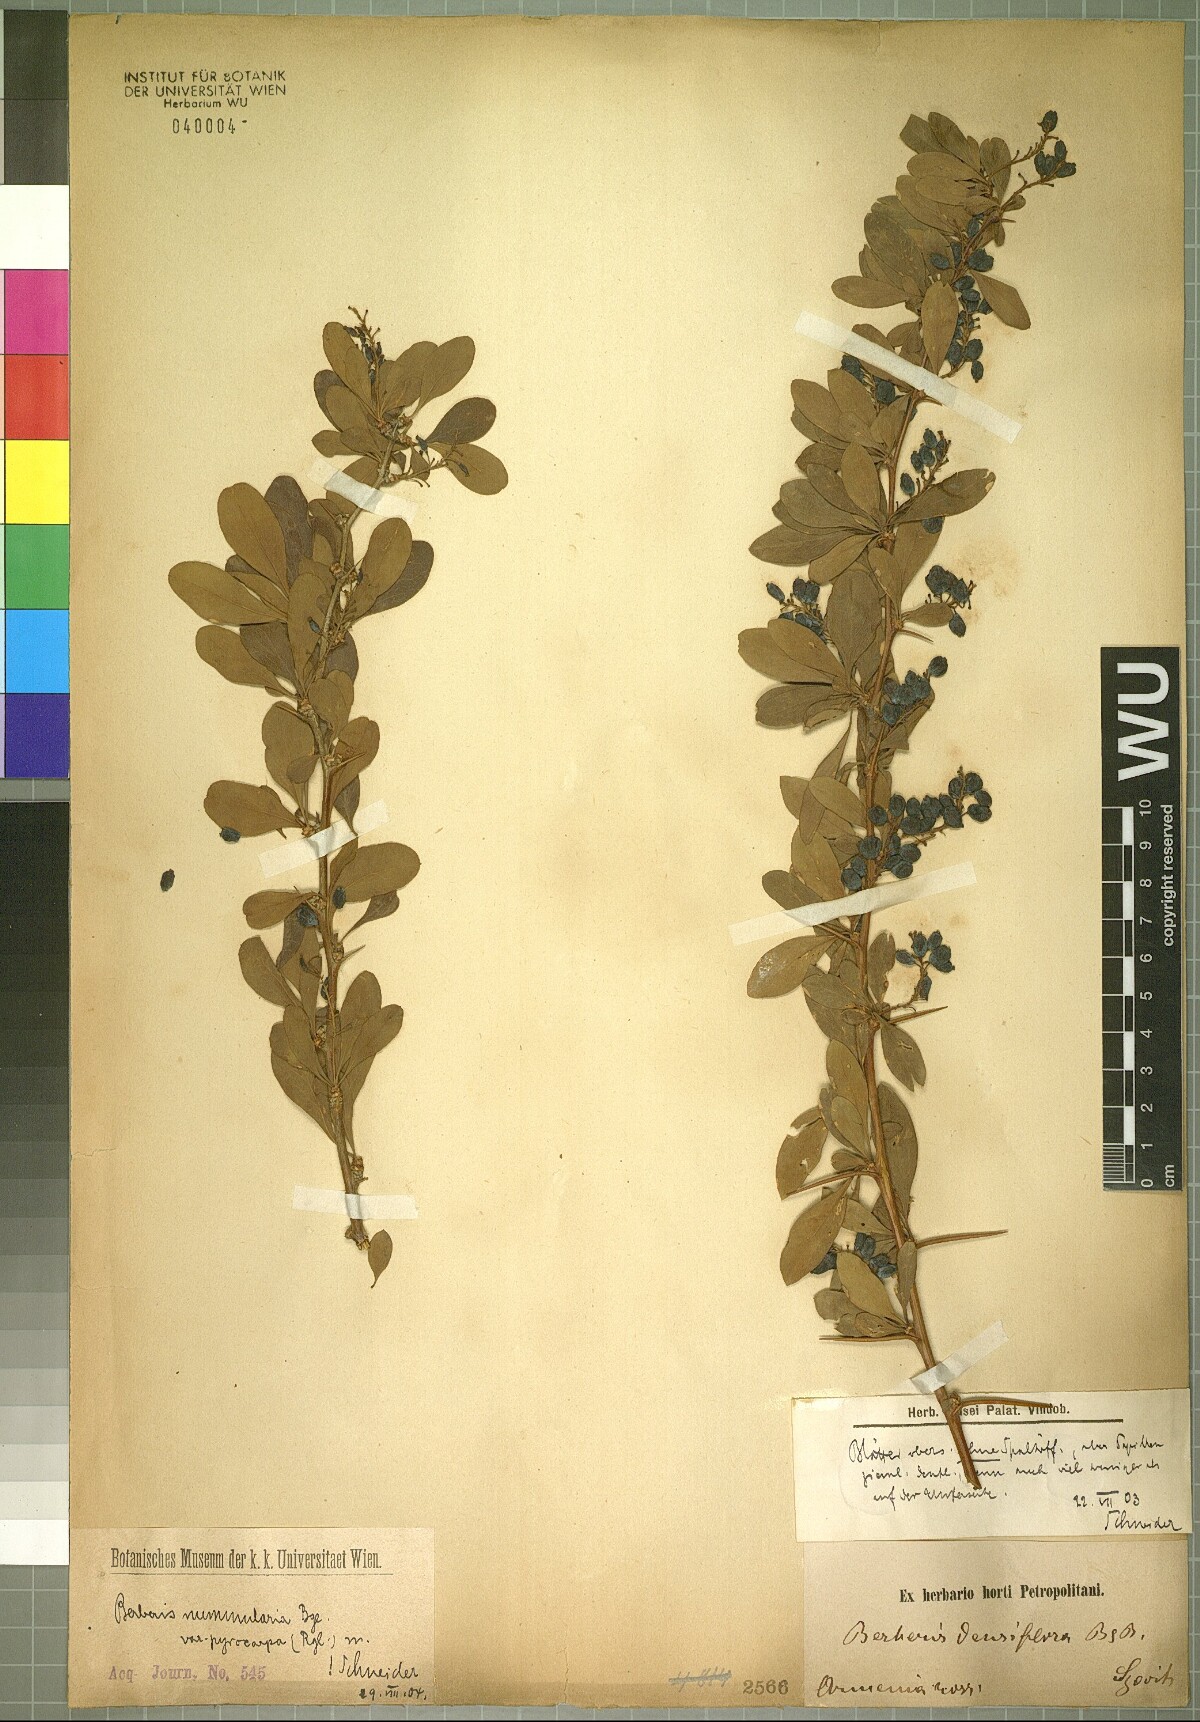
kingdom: Plantae
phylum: Tracheophyta
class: Magnoliopsida
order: Ranunculales
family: Berberidaceae
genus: Berberis
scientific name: Berberis nummularia
